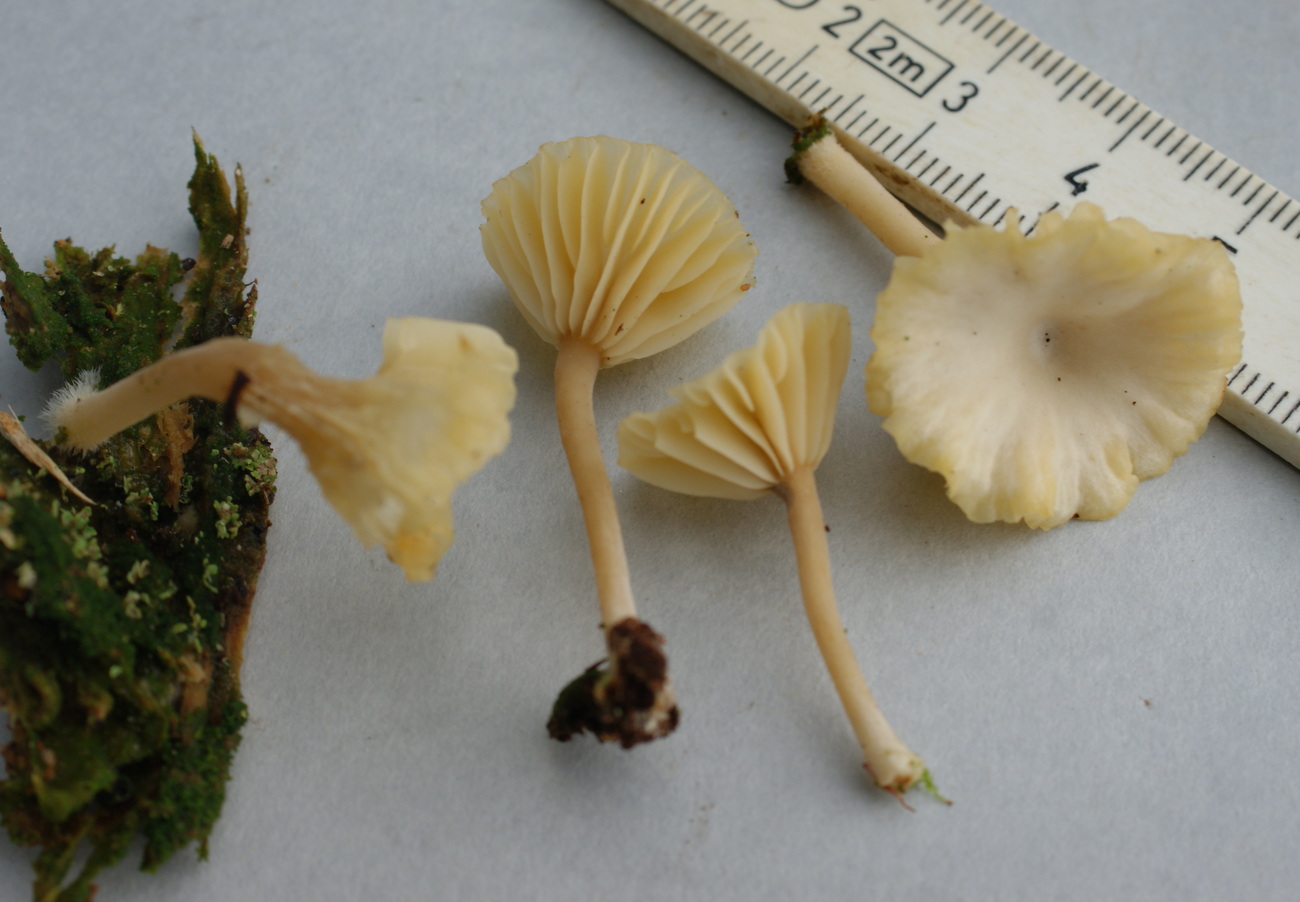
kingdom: Fungi
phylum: Basidiomycota
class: Agaricomycetes
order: Agaricales
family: Hygrophoraceae
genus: Lichenomphalia
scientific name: Lichenomphalia umbellifera
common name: tørve-lavhat
